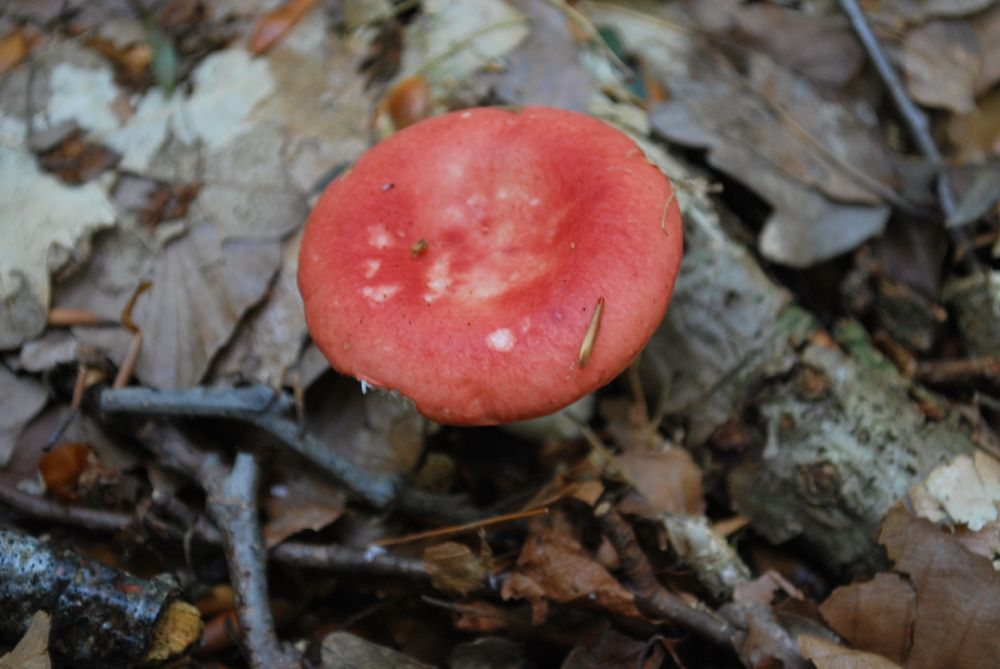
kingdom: Fungi
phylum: Basidiomycota
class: Agaricomycetes
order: Russulales
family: Russulaceae
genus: Russula
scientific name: Russula emetica
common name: stor gift-skørhat
